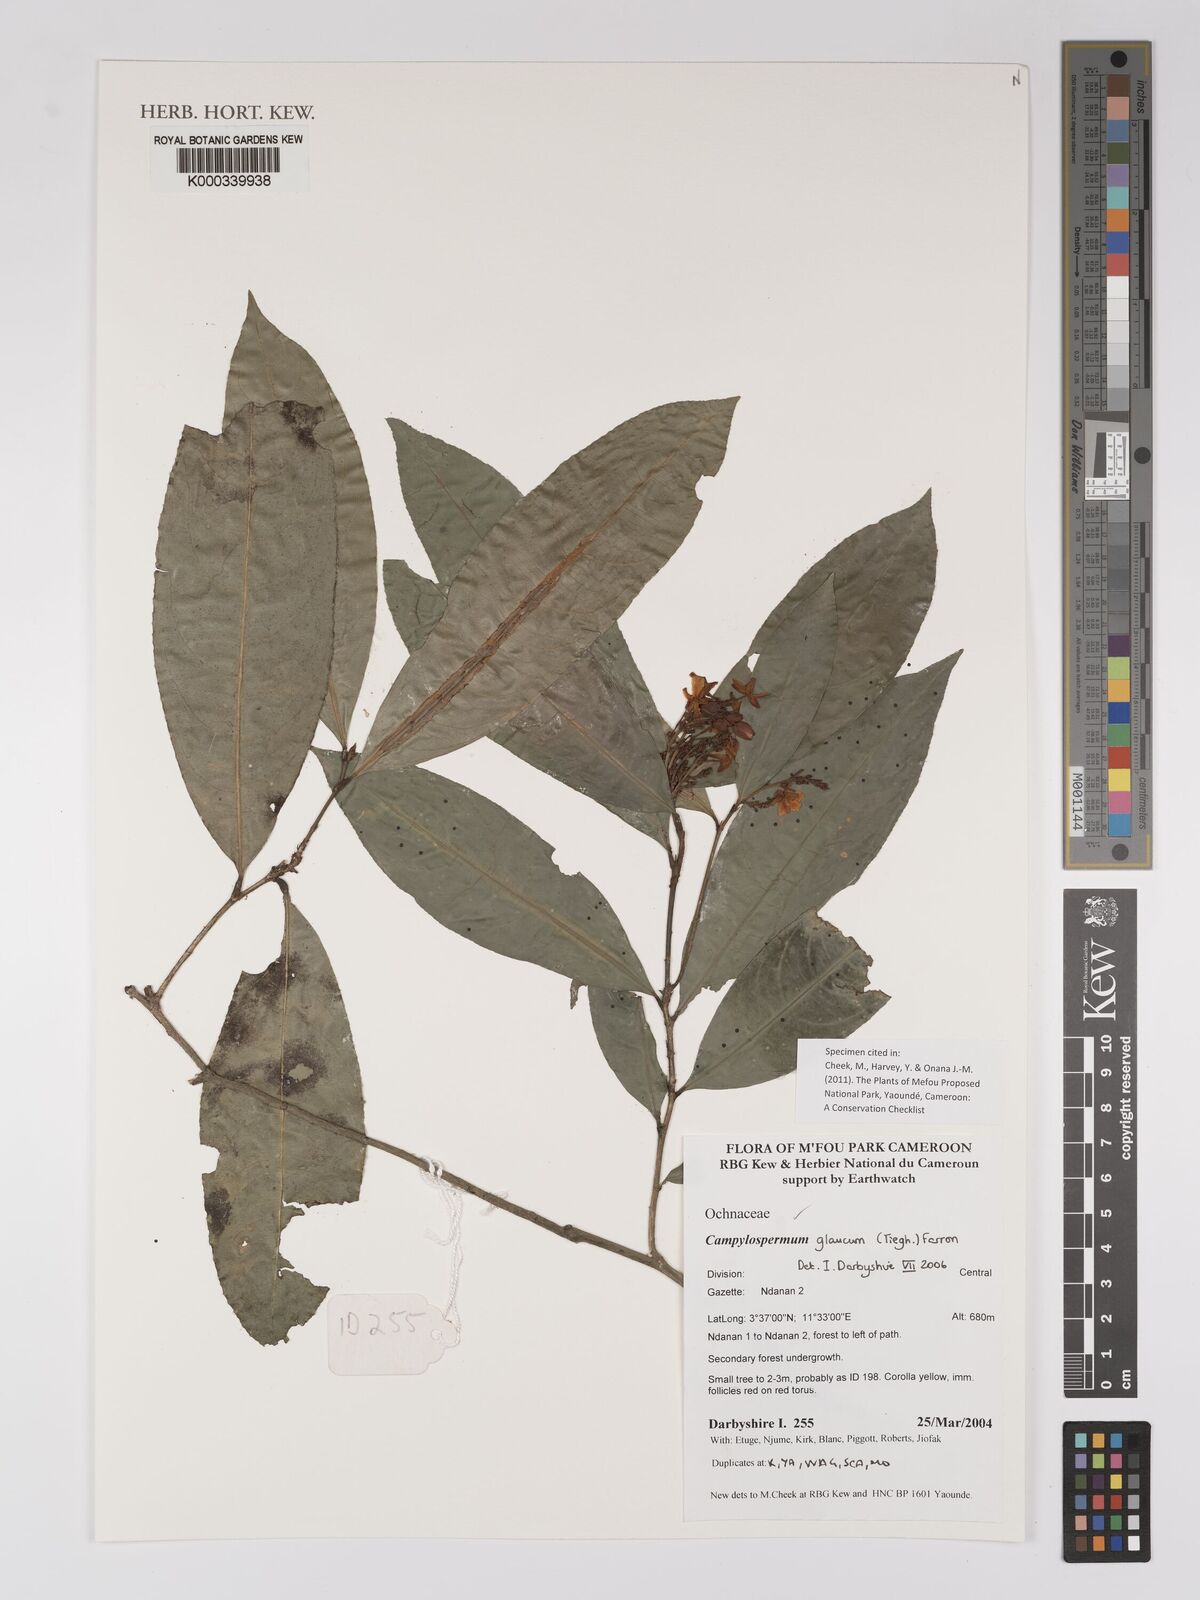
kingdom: Plantae
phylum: Tracheophyta
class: Magnoliopsida
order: Malpighiales
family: Ochnaceae
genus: Campylospermum
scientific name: Campylospermum glaucum
